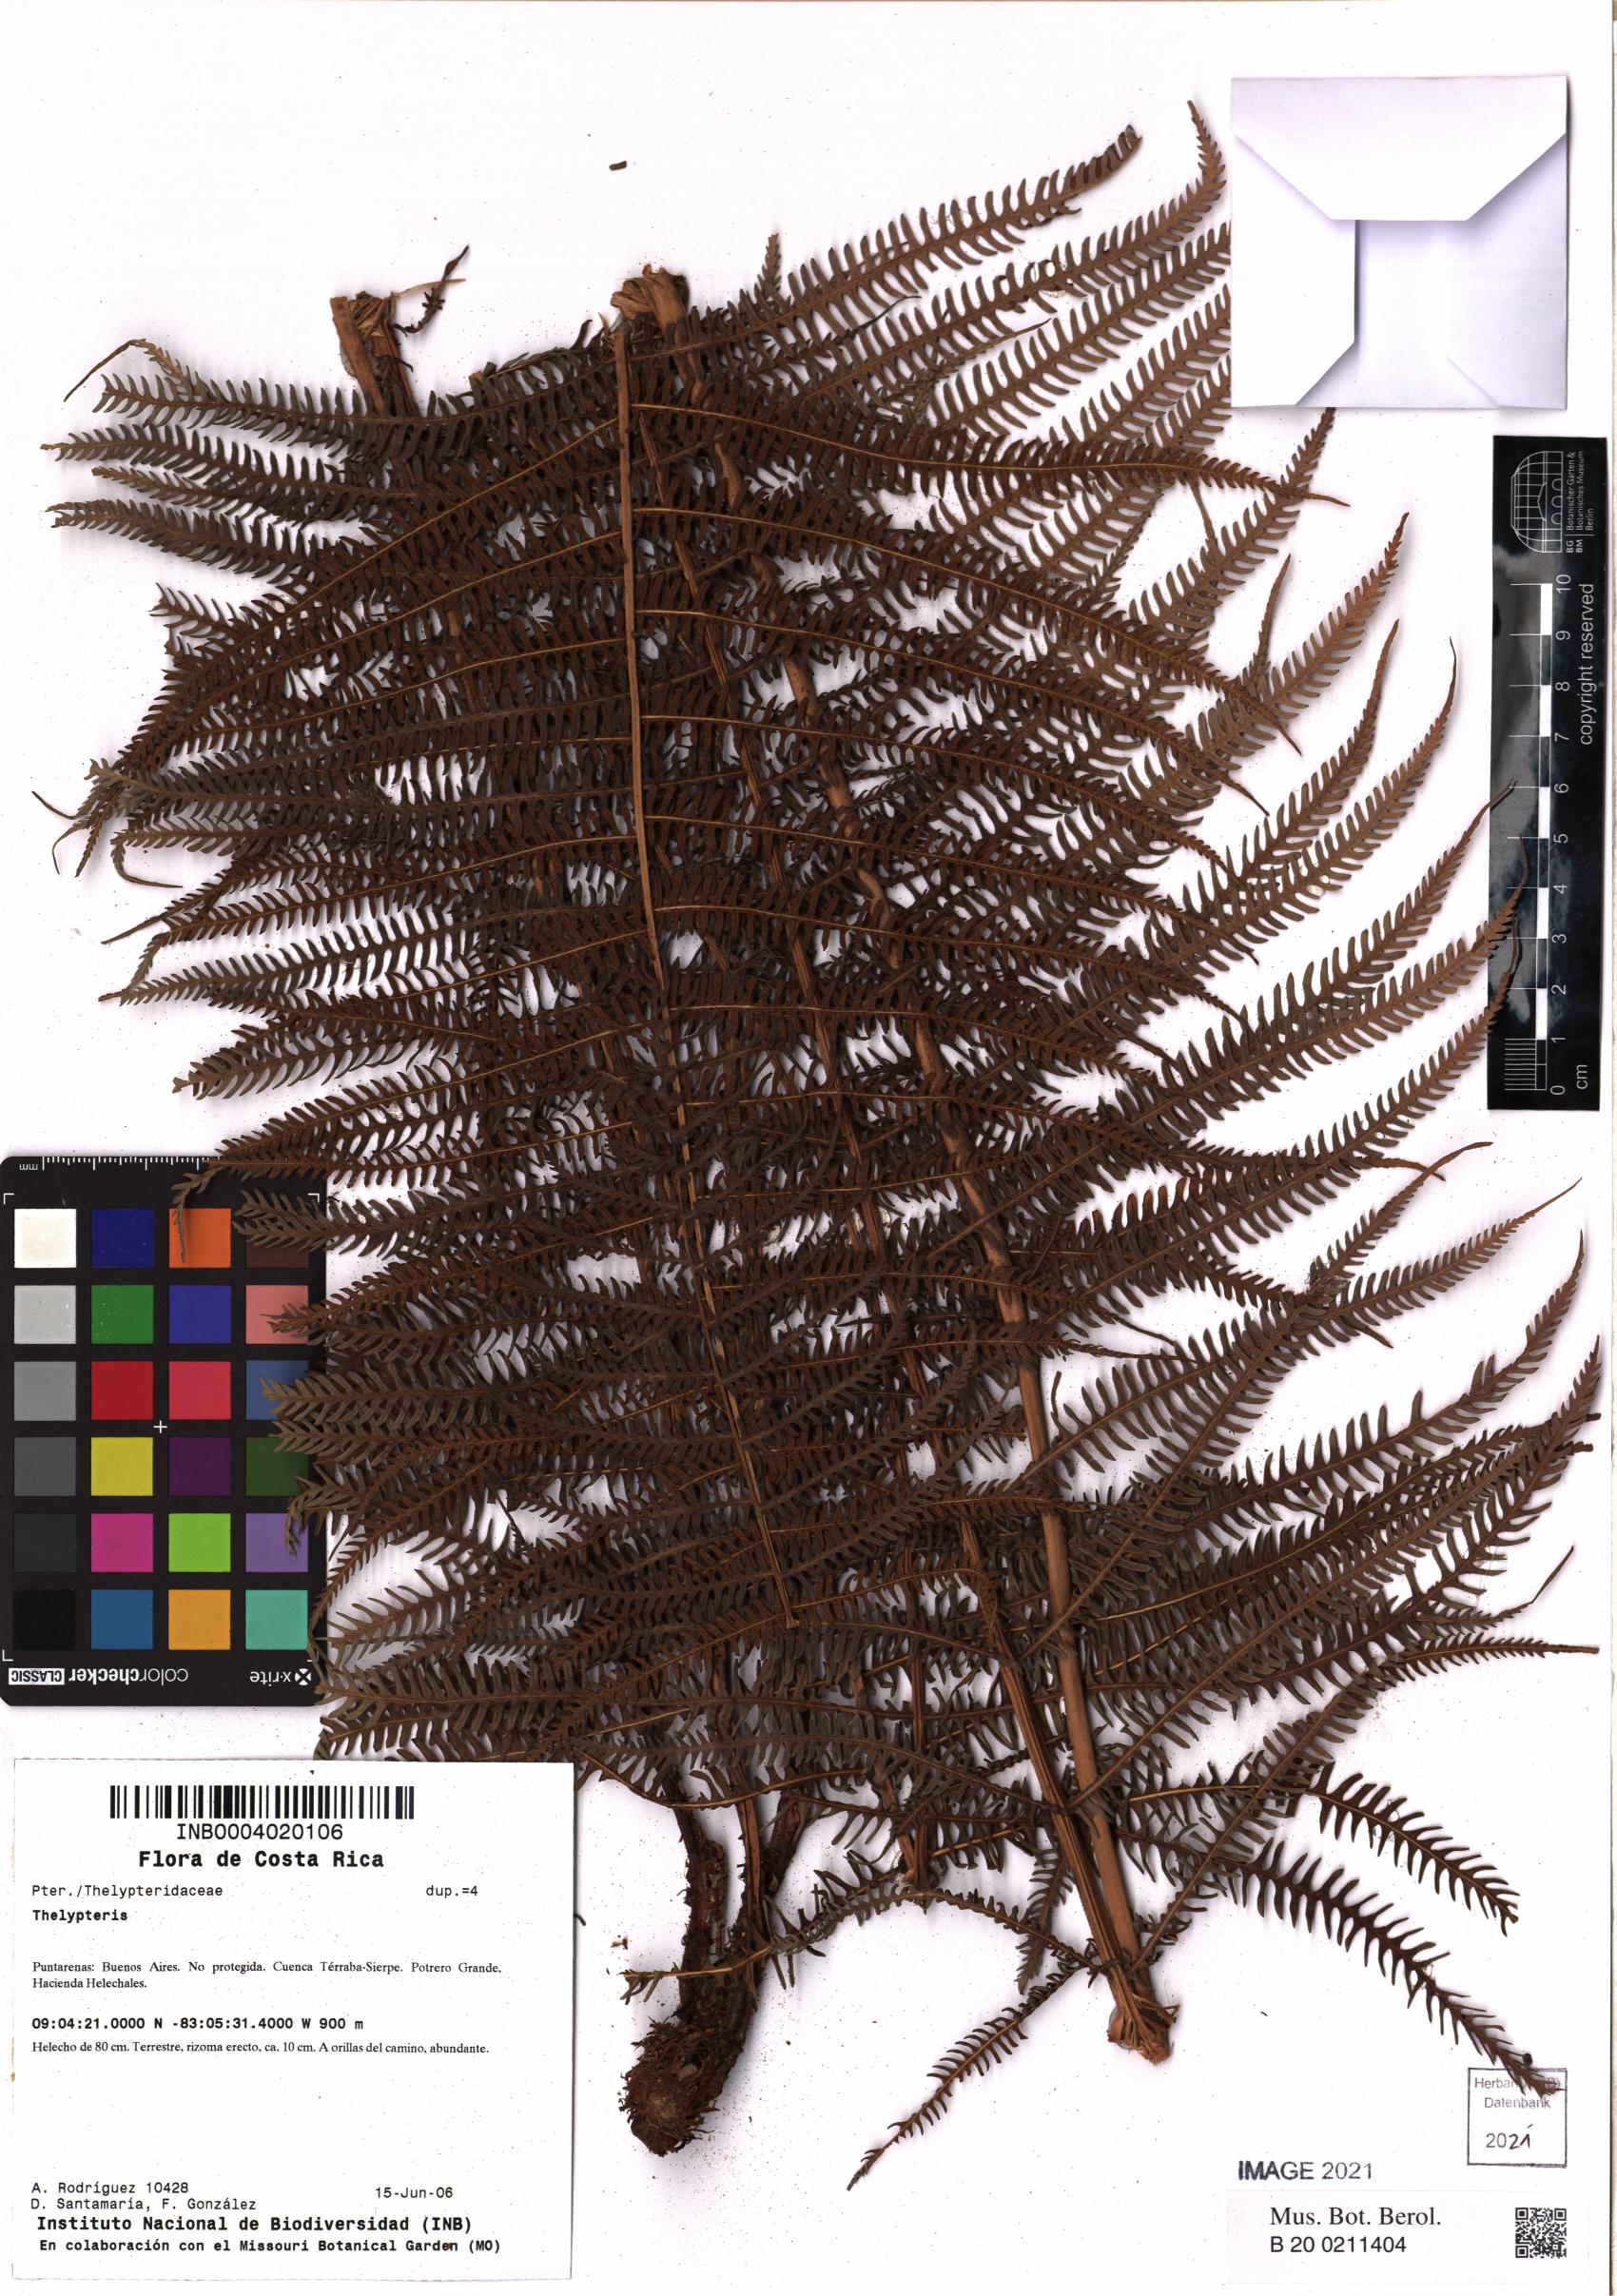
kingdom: Plantae
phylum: Tracheophyta
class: Polypodiopsida
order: Polypodiales
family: Thelypteridaceae
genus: Thelypteris
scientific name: Thelypteris
